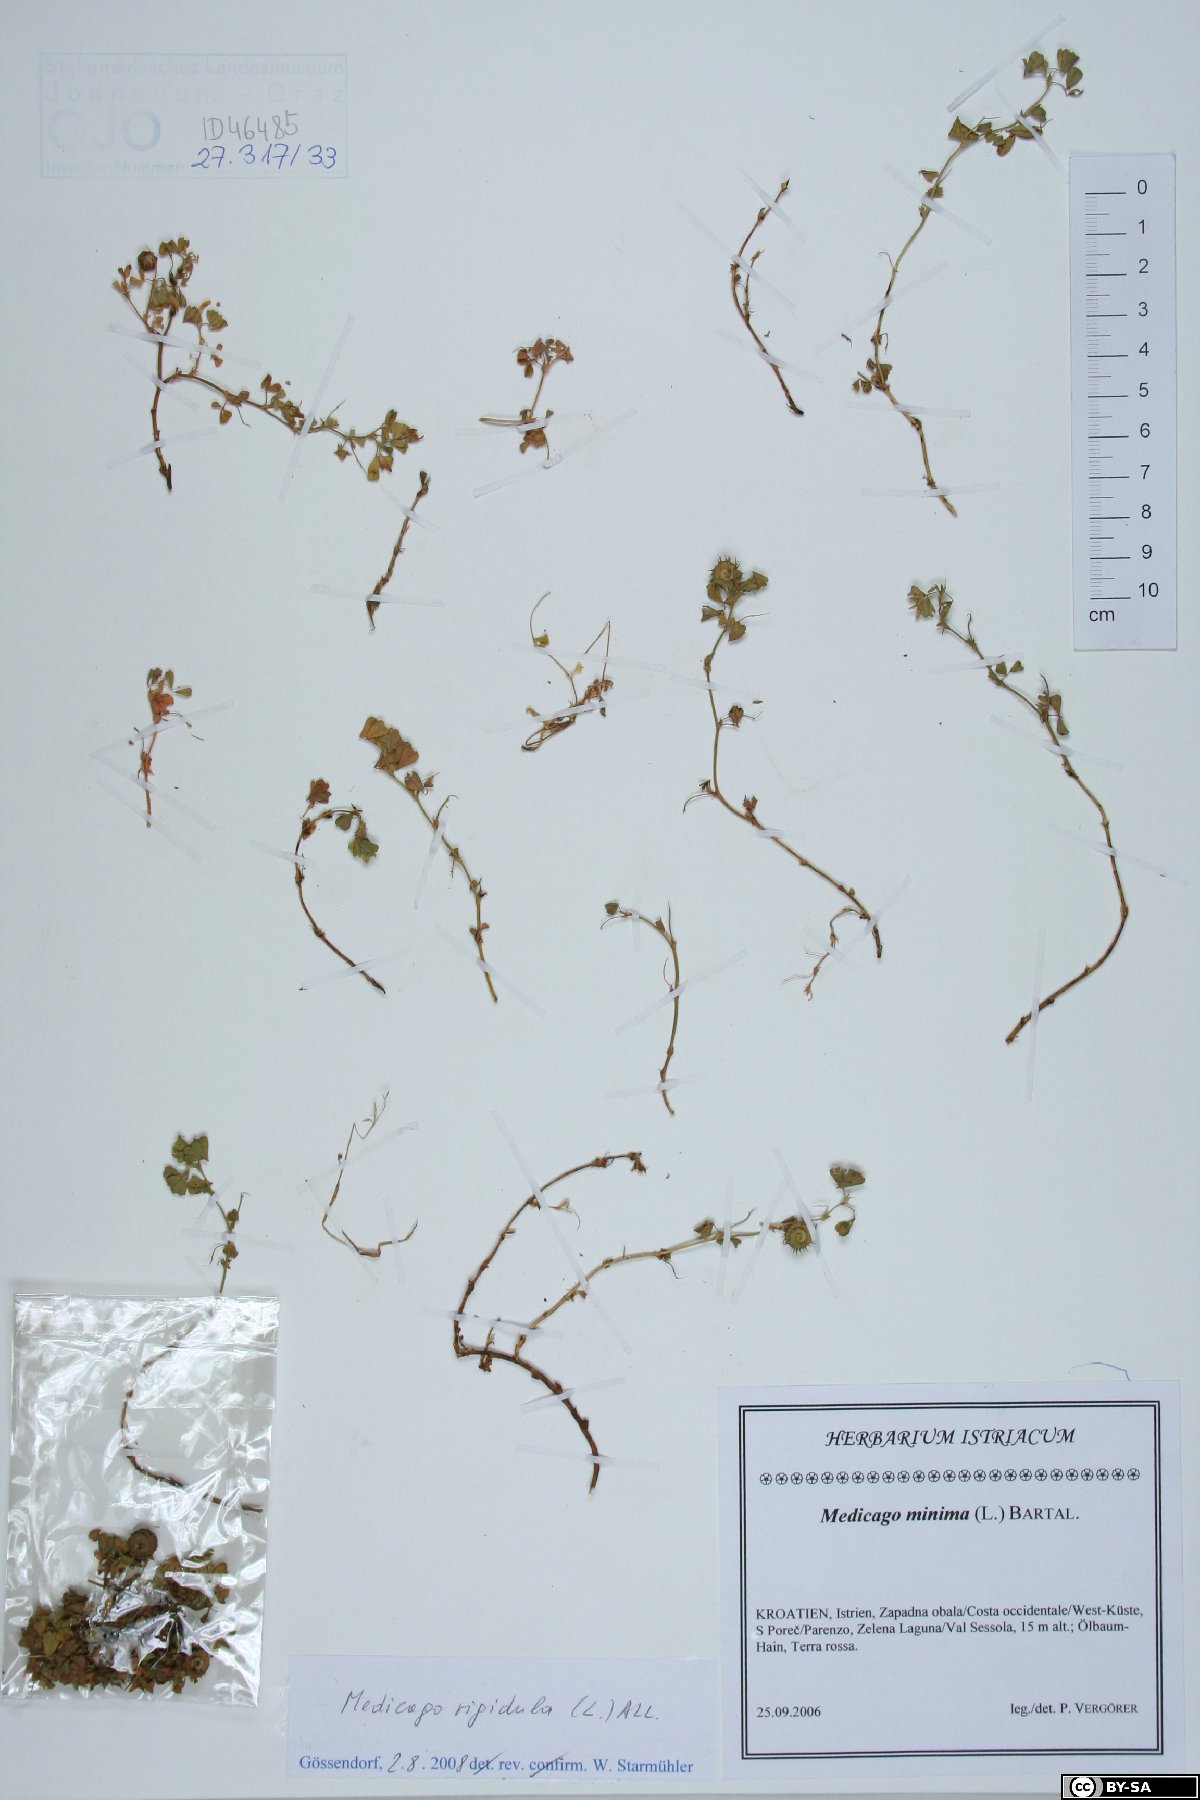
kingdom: Plantae
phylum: Tracheophyta
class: Magnoliopsida
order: Fabales
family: Fabaceae
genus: Medicago
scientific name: Medicago rigidula
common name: Tifton medic
